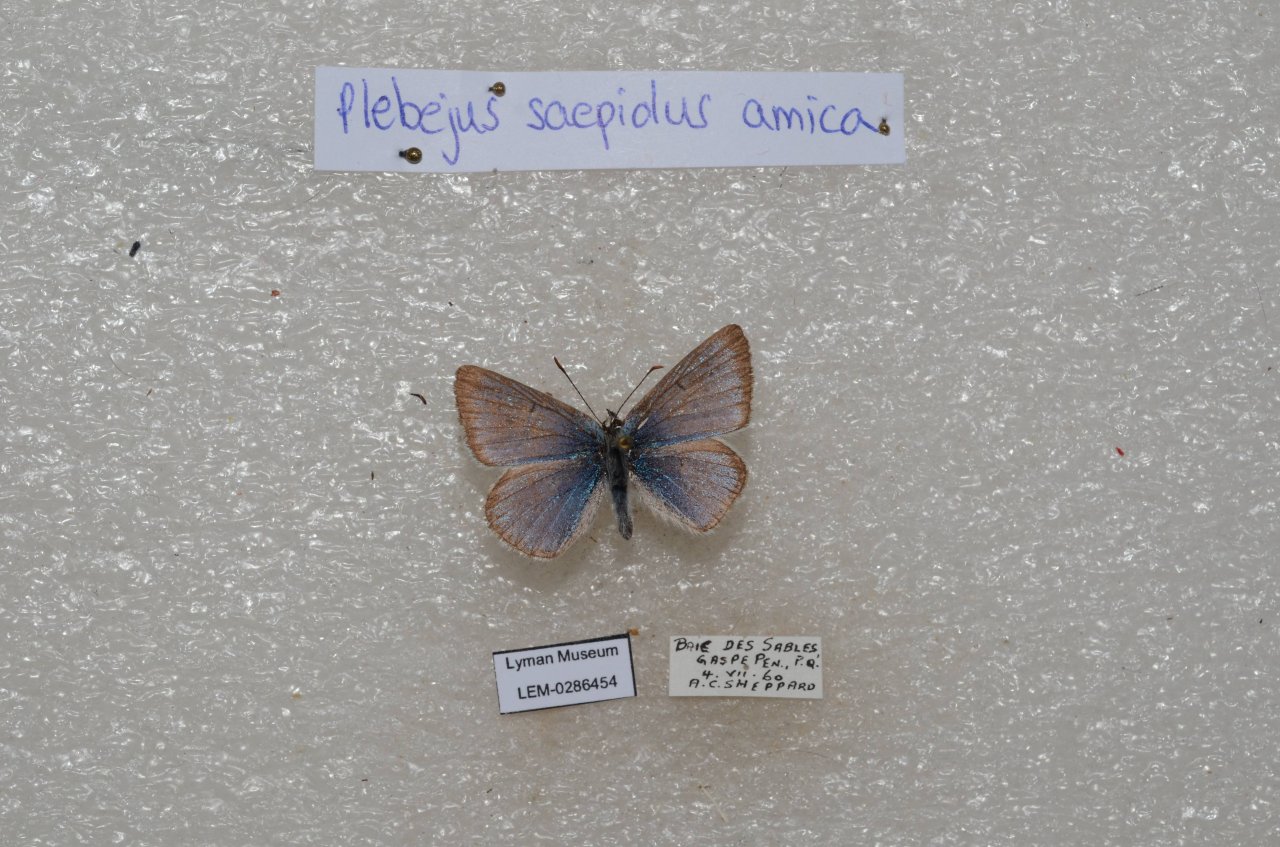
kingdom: Animalia
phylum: Arthropoda
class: Insecta
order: Lepidoptera
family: Lycaenidae
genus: Plebejus
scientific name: Plebejus saepiolus
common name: Greenish Blue
